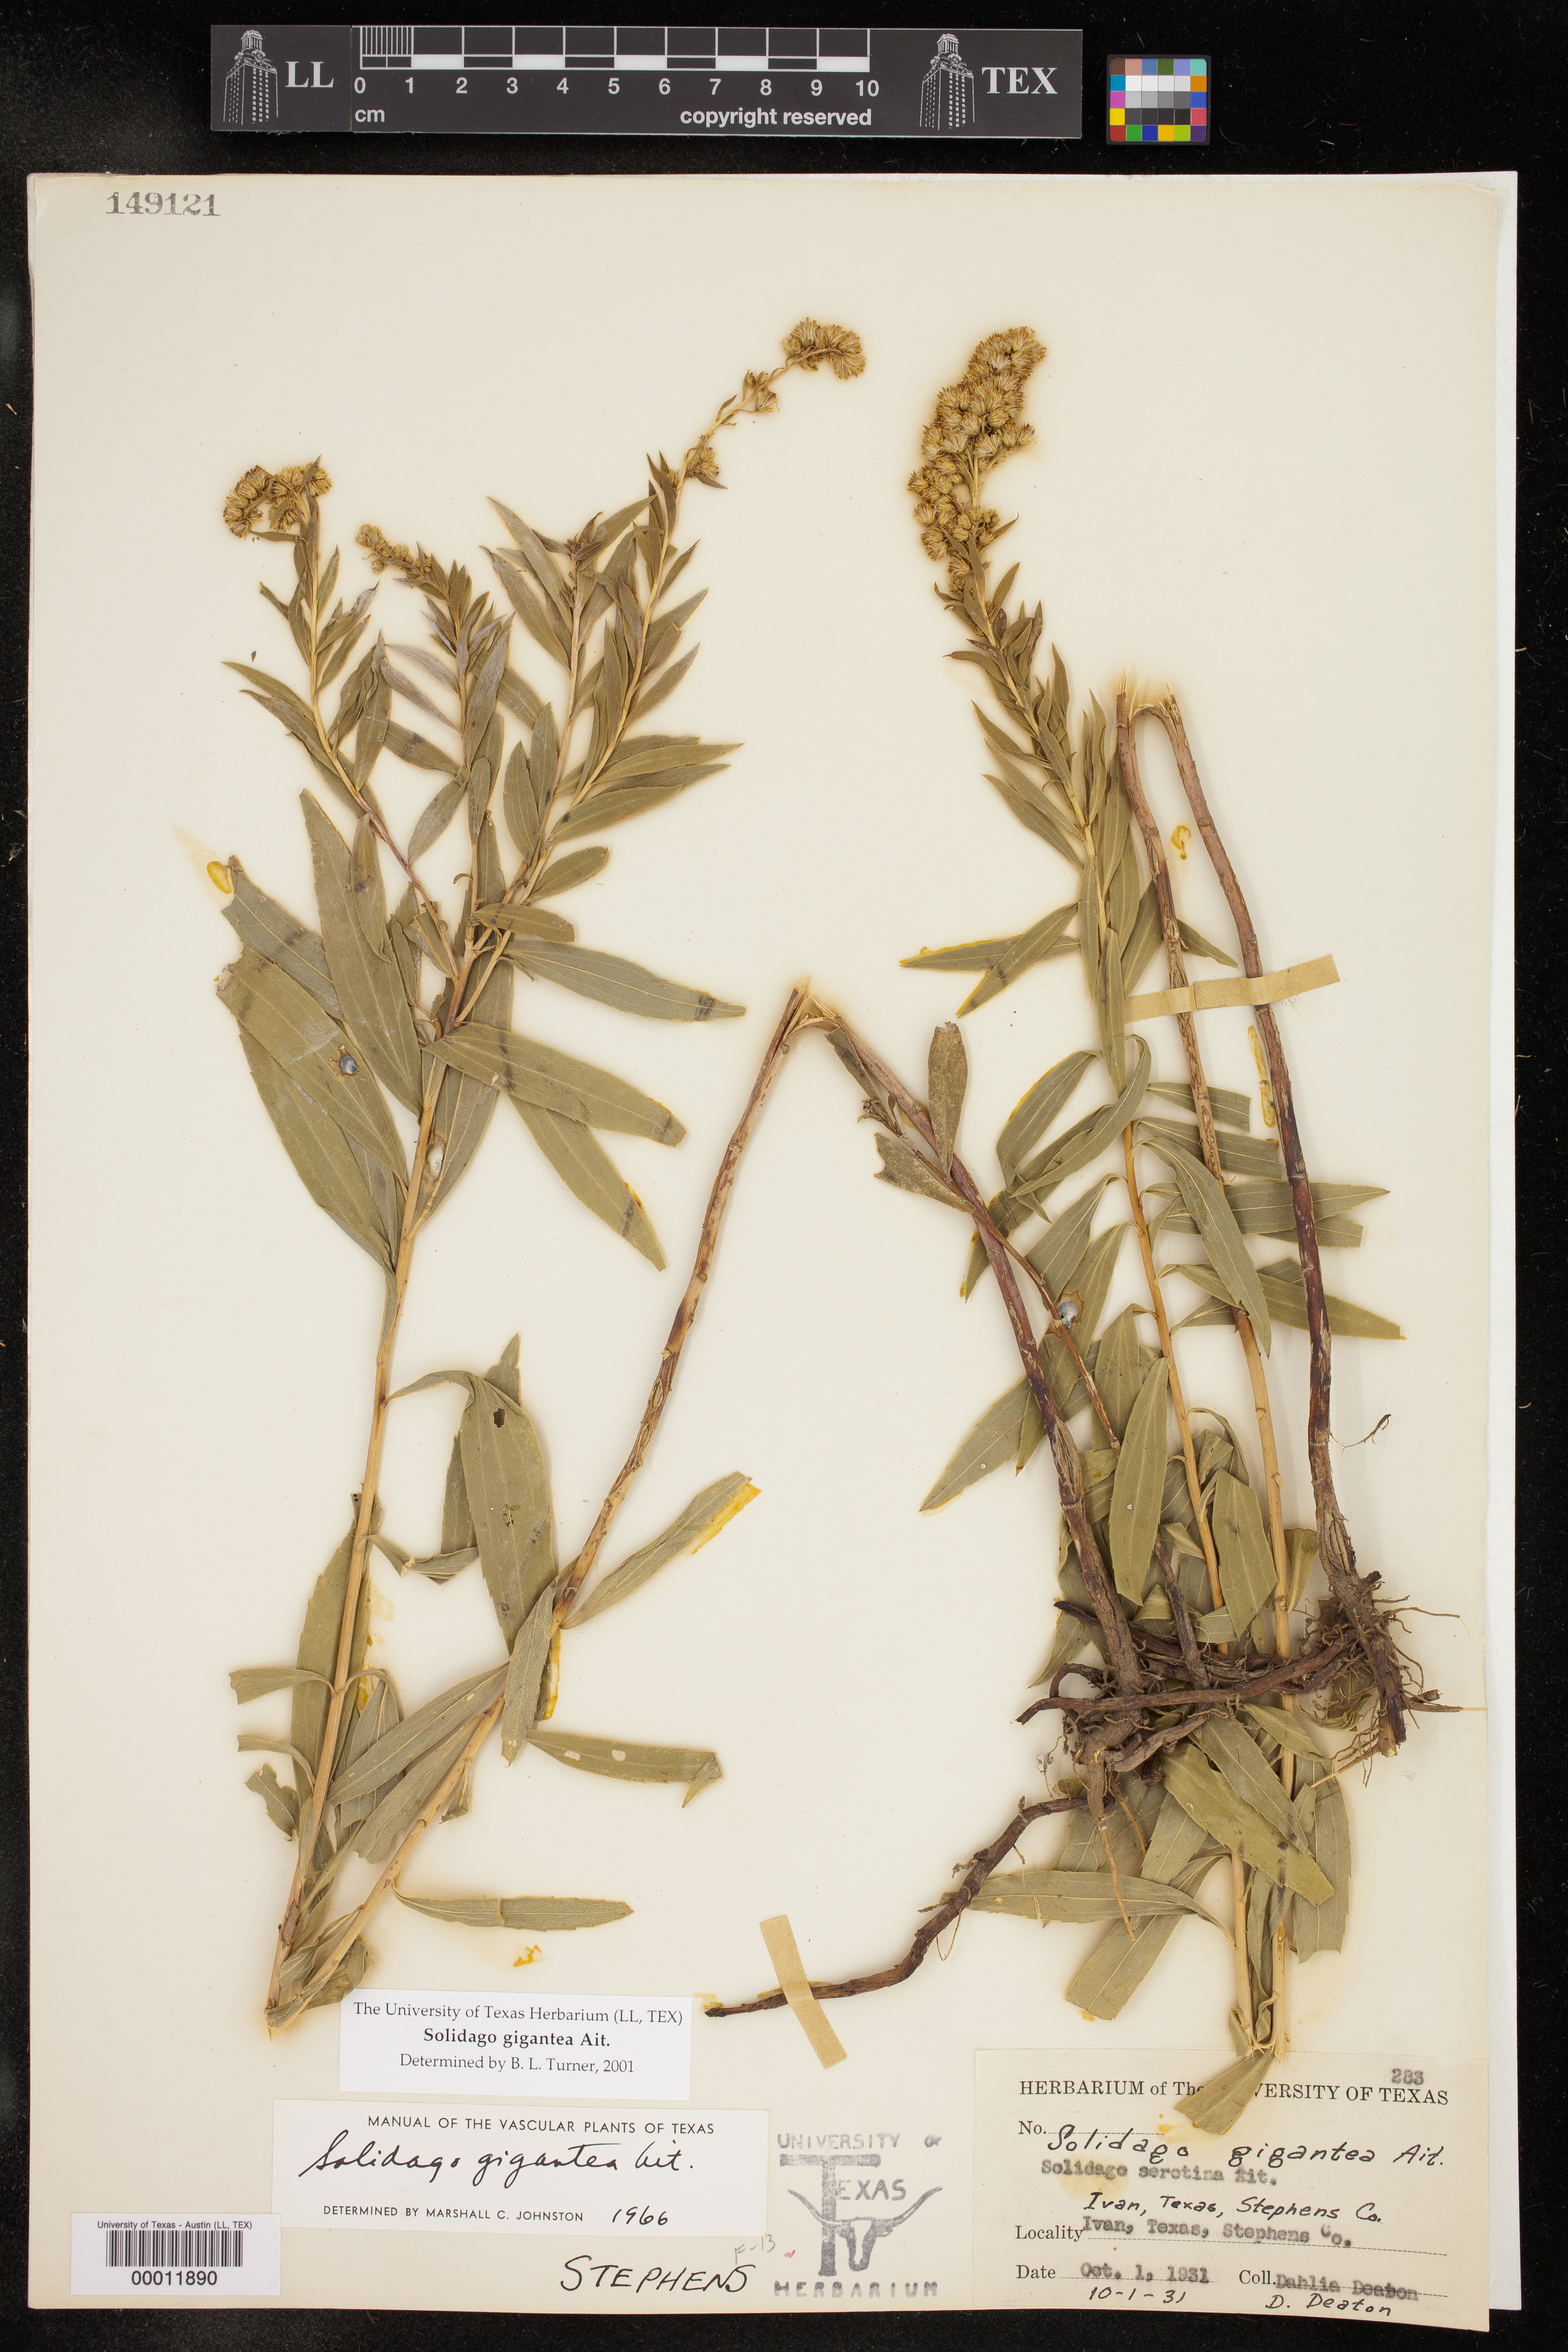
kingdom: Plantae
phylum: Tracheophyta
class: Magnoliopsida
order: Asterales
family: Asteraceae
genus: Solidago
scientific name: Solidago gigantea
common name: Giant goldenrod
